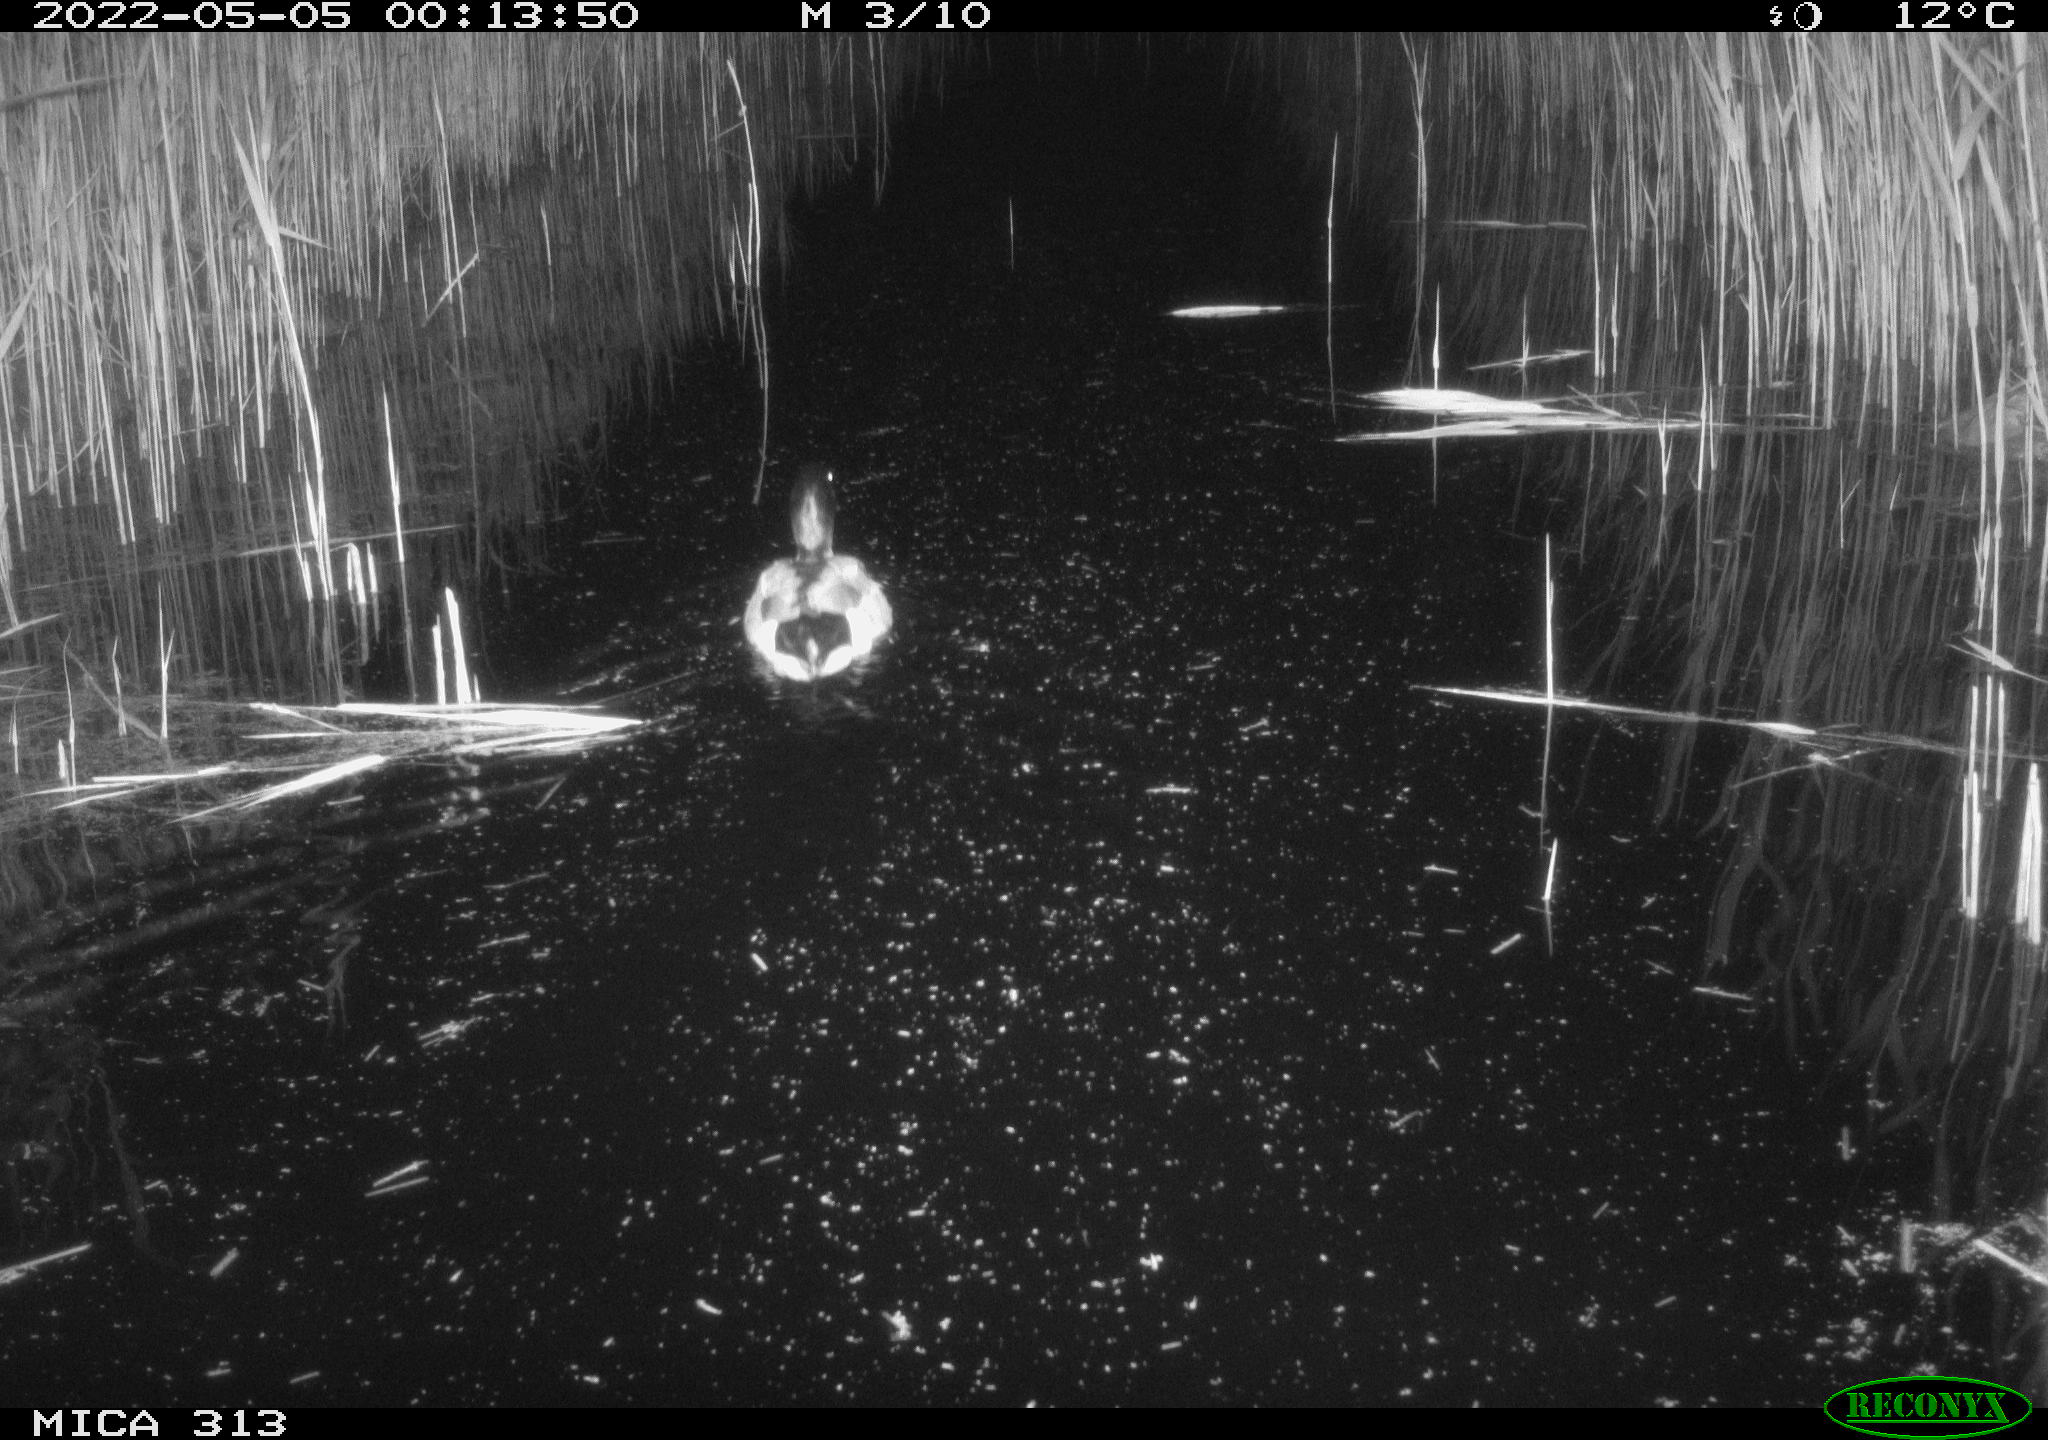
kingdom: Animalia
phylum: Chordata
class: Aves
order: Anseriformes
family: Anatidae
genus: Anas
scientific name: Anas platyrhynchos
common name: Mallard
